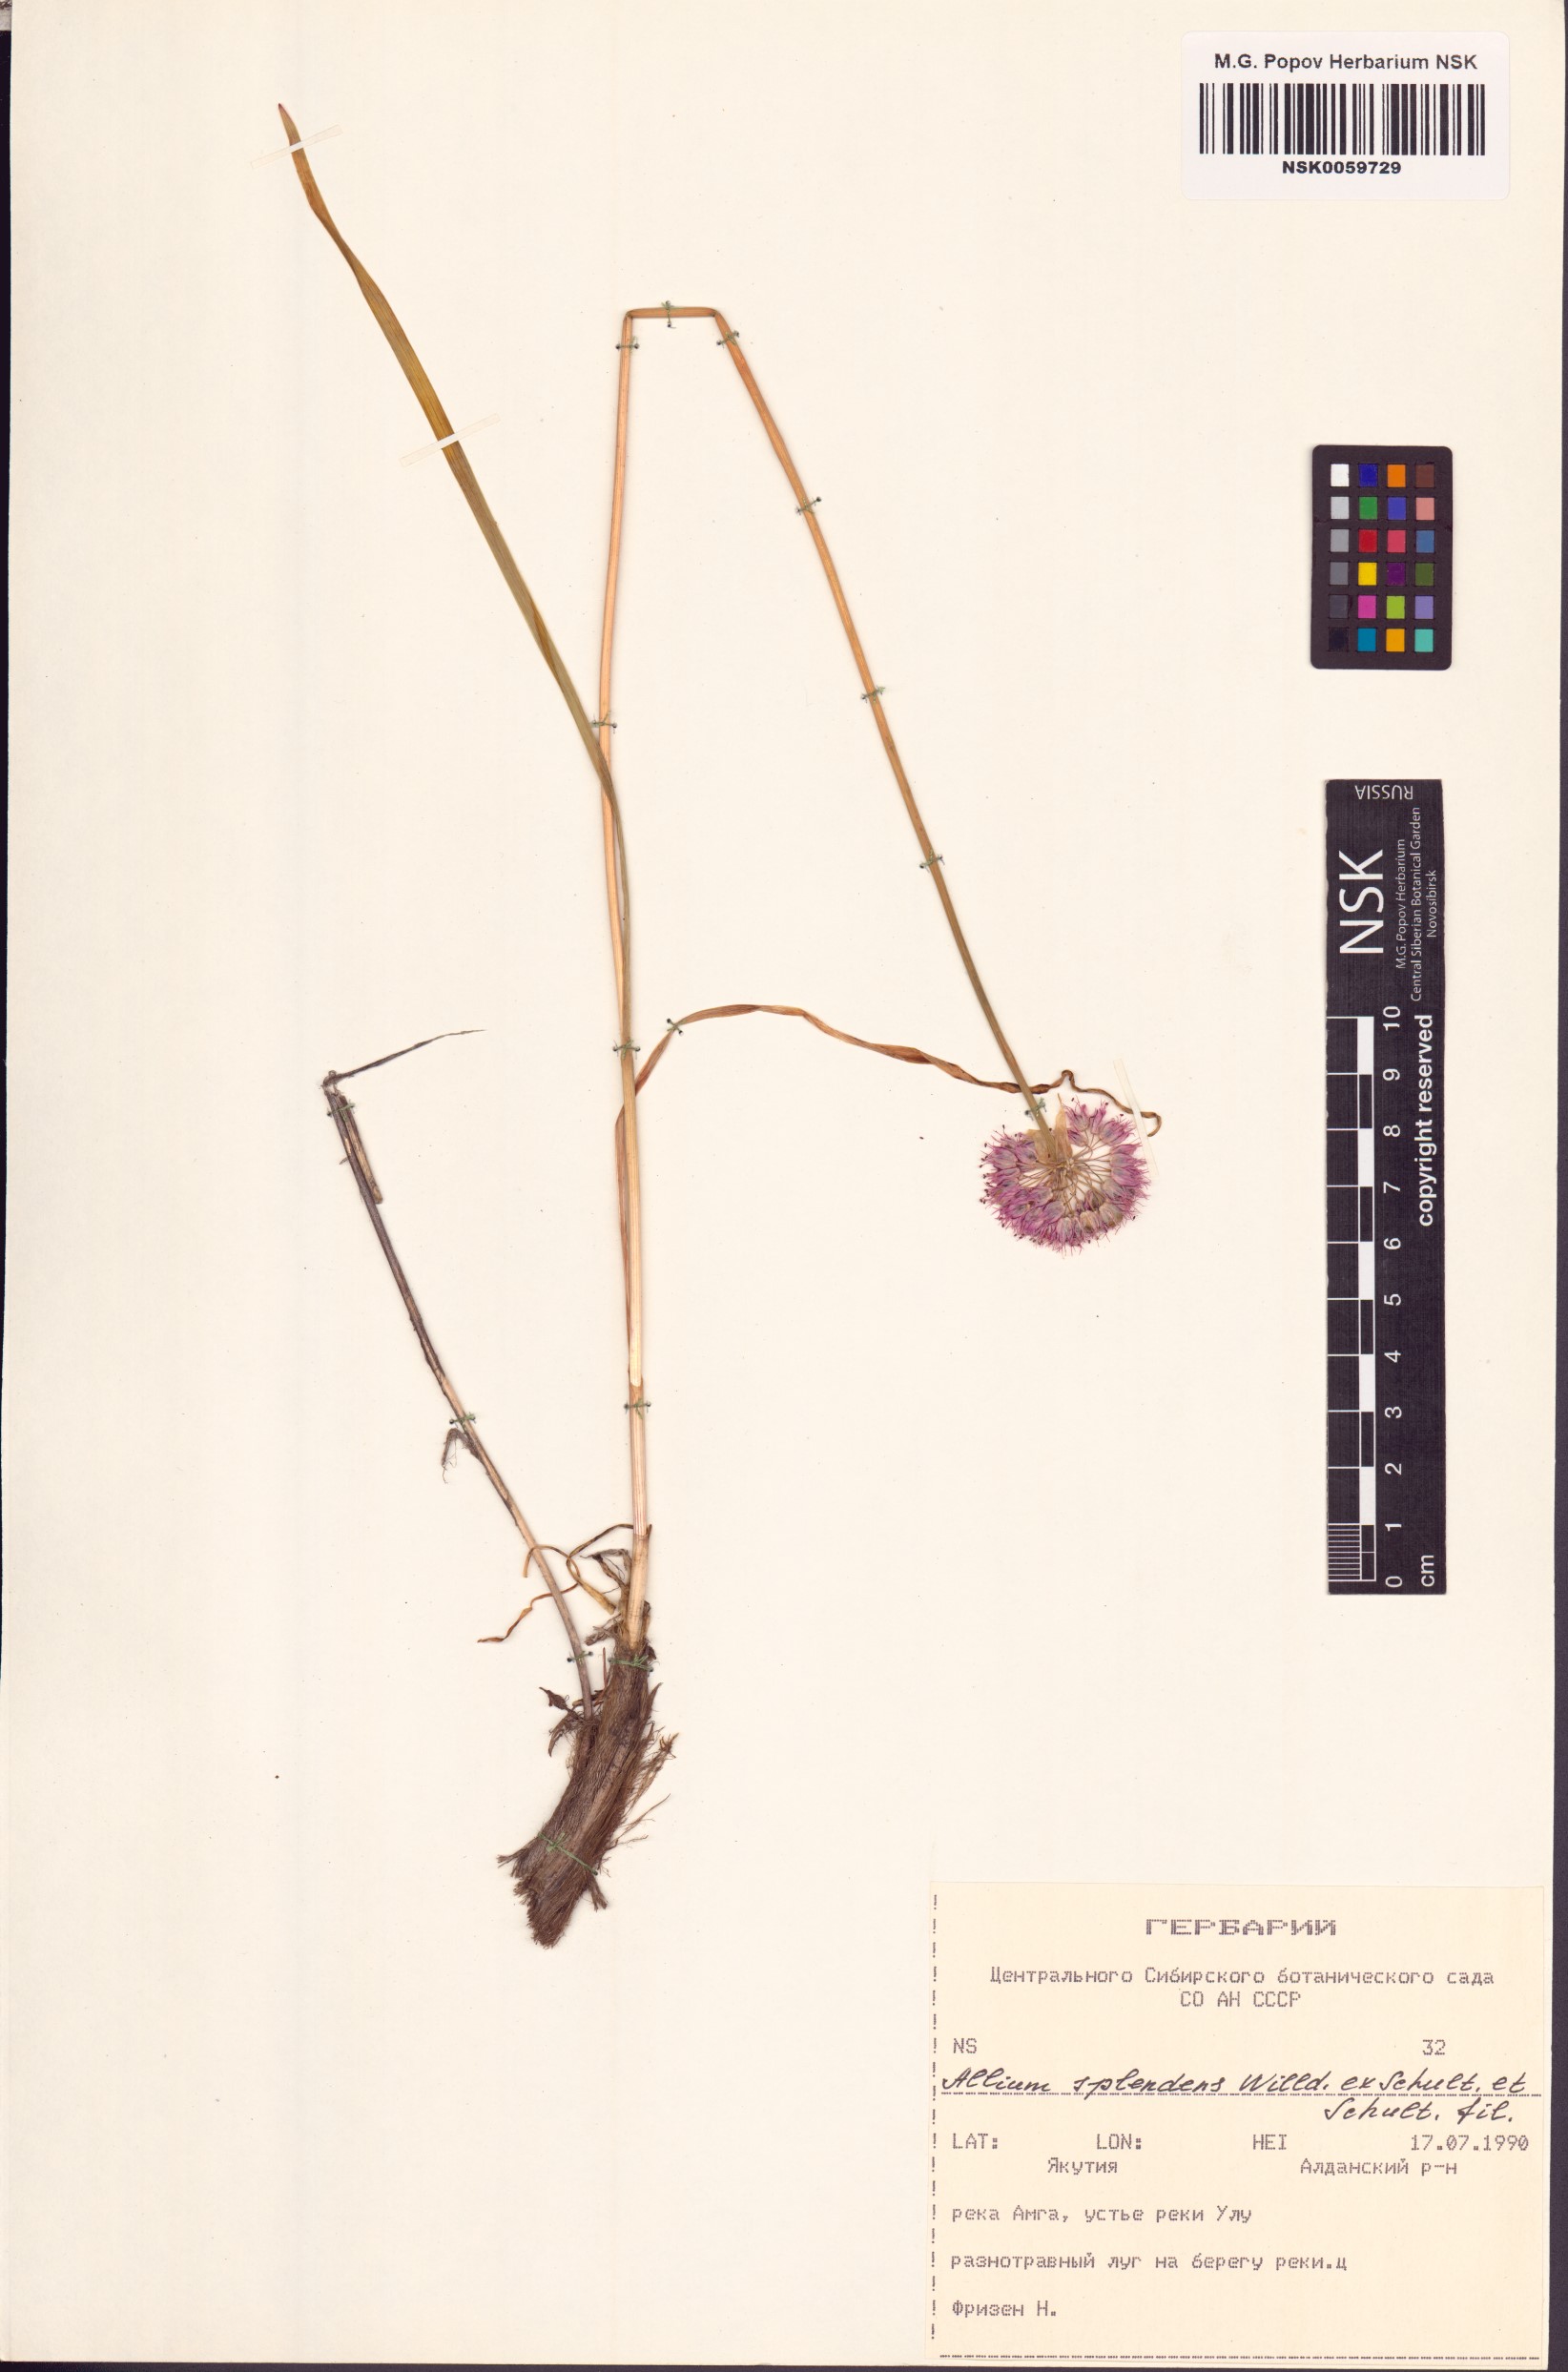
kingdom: Plantae
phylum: Tracheophyta
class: Liliopsida
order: Asparagales
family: Amaryllidaceae
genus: Allium
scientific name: Allium splendens
